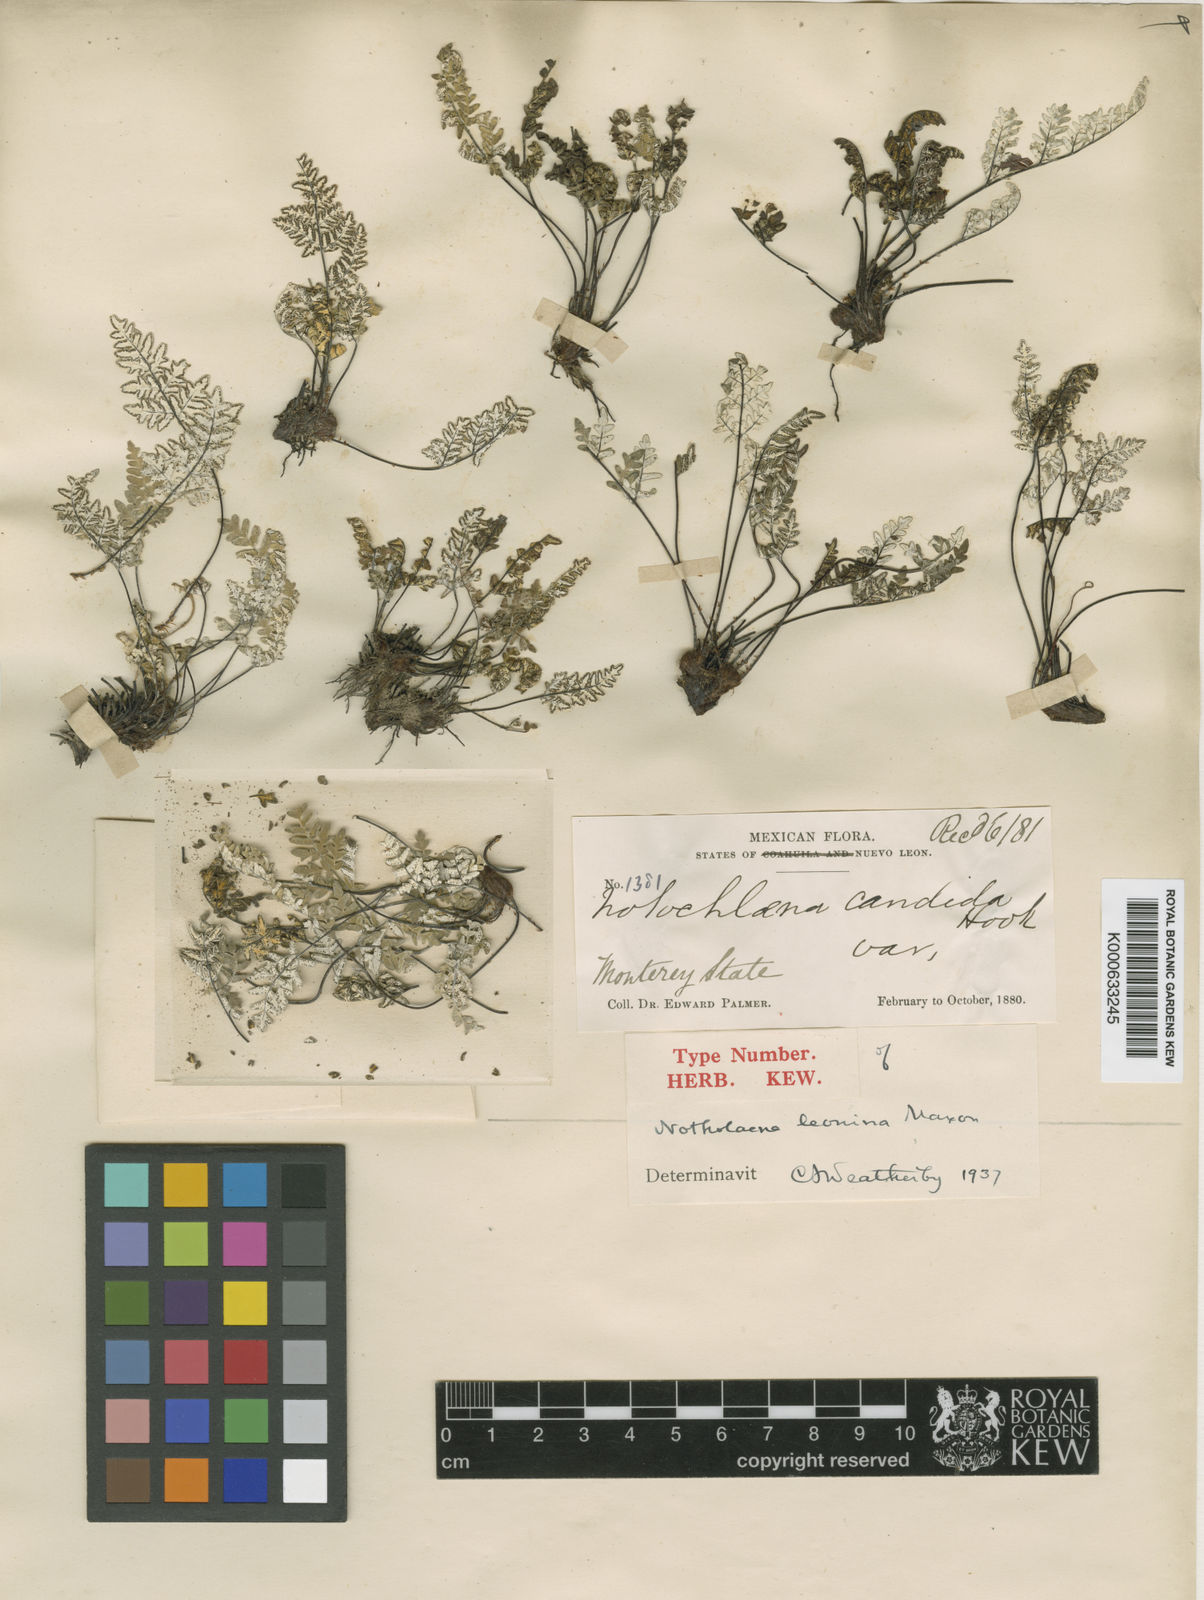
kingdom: Plantae
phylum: Tracheophyta
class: Polypodiopsida
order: Polypodiales
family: Pteridaceae
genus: Cheilanthes
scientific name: Cheilanthes
